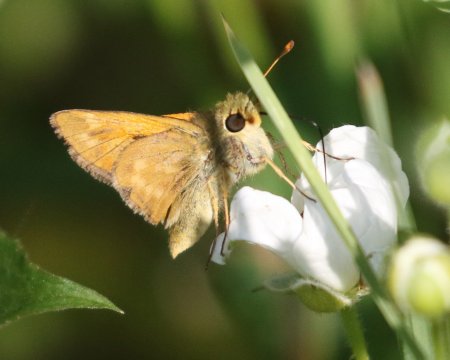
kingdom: Animalia
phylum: Arthropoda
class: Insecta
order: Lepidoptera
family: Hesperiidae
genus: Spialia
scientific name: Spialia galba
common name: Indian Skipper
